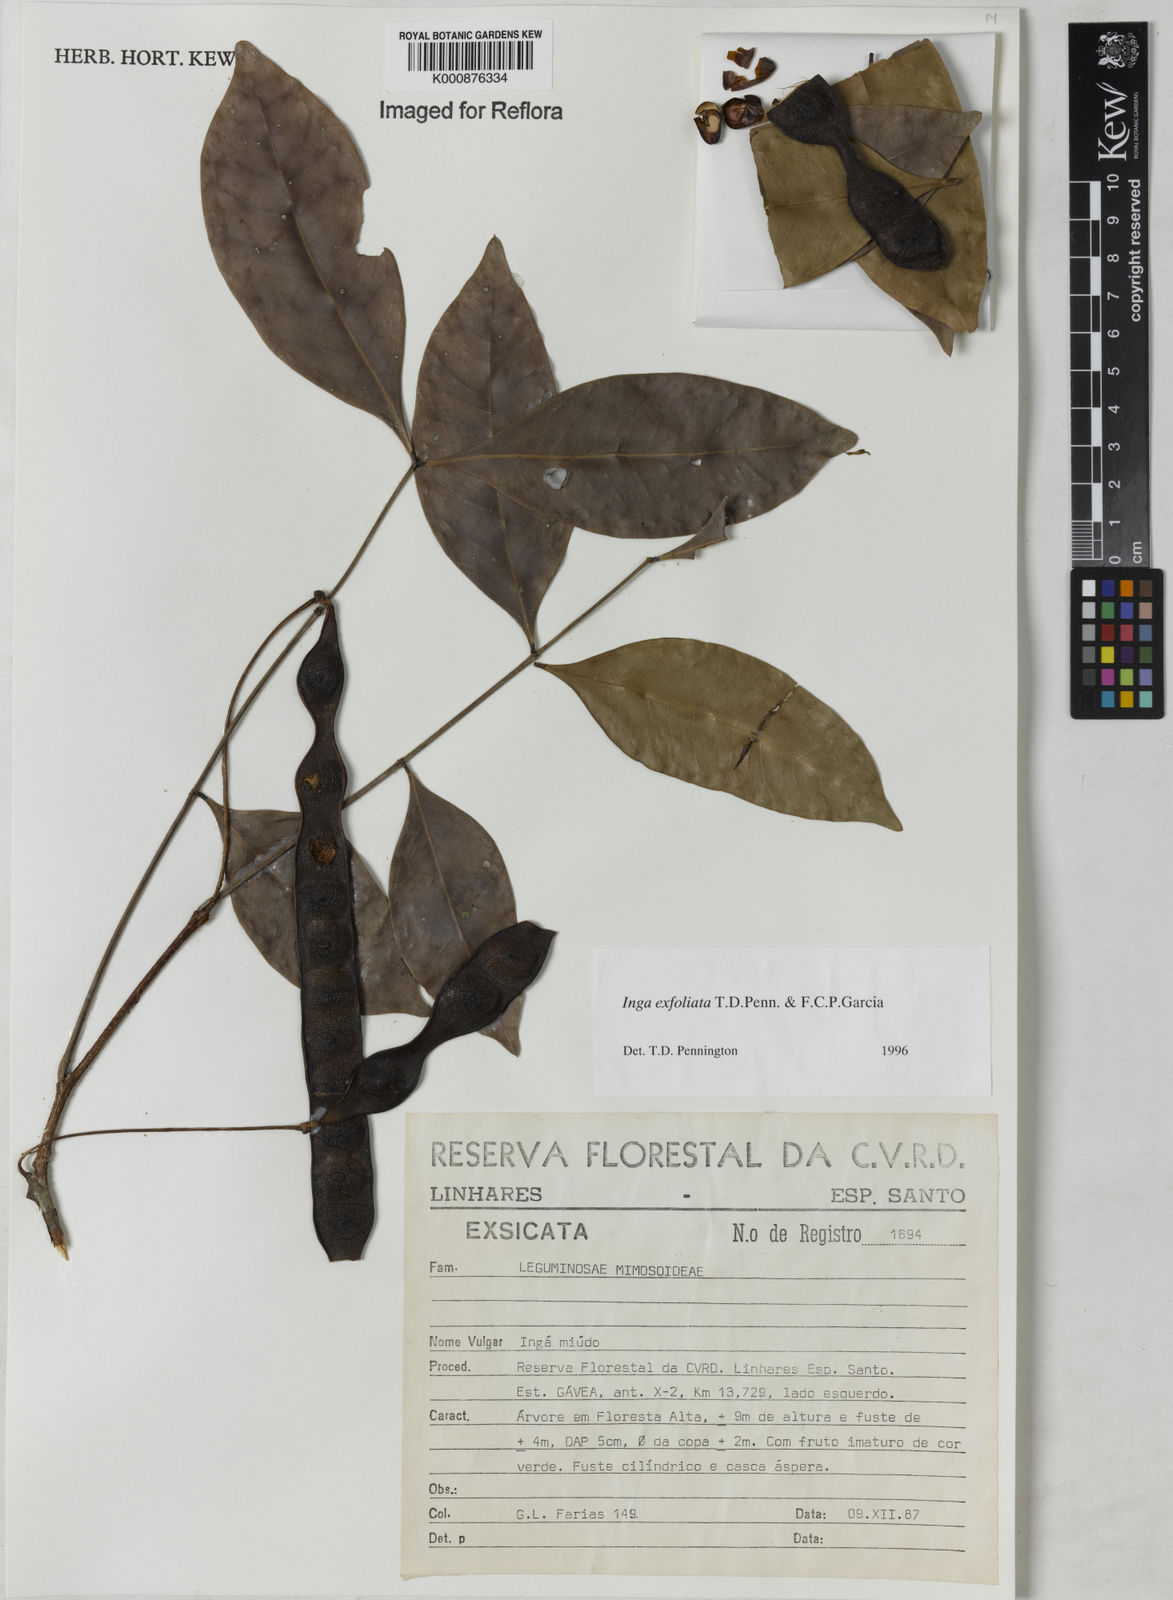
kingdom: Plantae
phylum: Tracheophyta
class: Magnoliopsida
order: Fabales
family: Fabaceae
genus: Inga
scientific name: Inga
